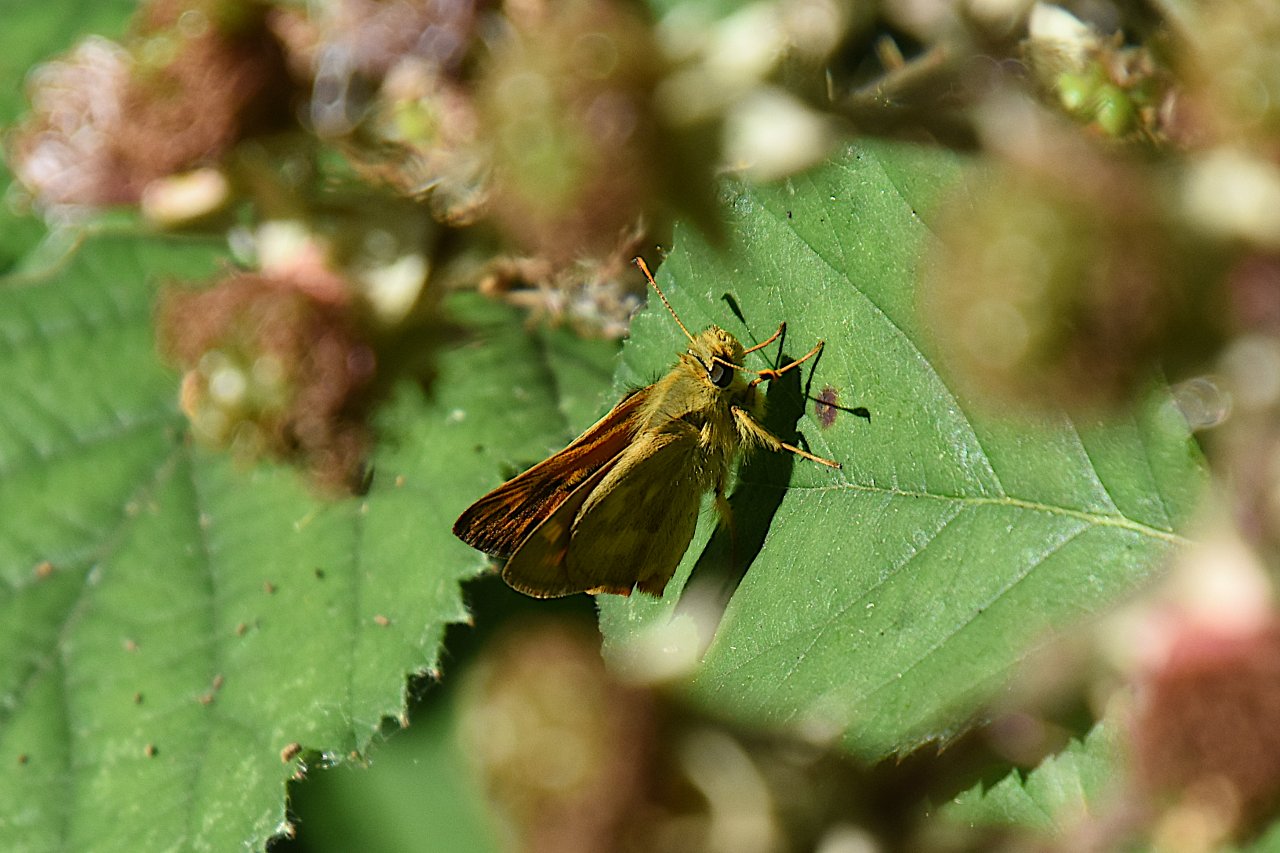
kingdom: Animalia
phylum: Arthropoda
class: Insecta
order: Lepidoptera
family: Hesperiidae
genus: Ochlodes
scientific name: Ochlodes sylvanoides
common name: Woodland Skipper
